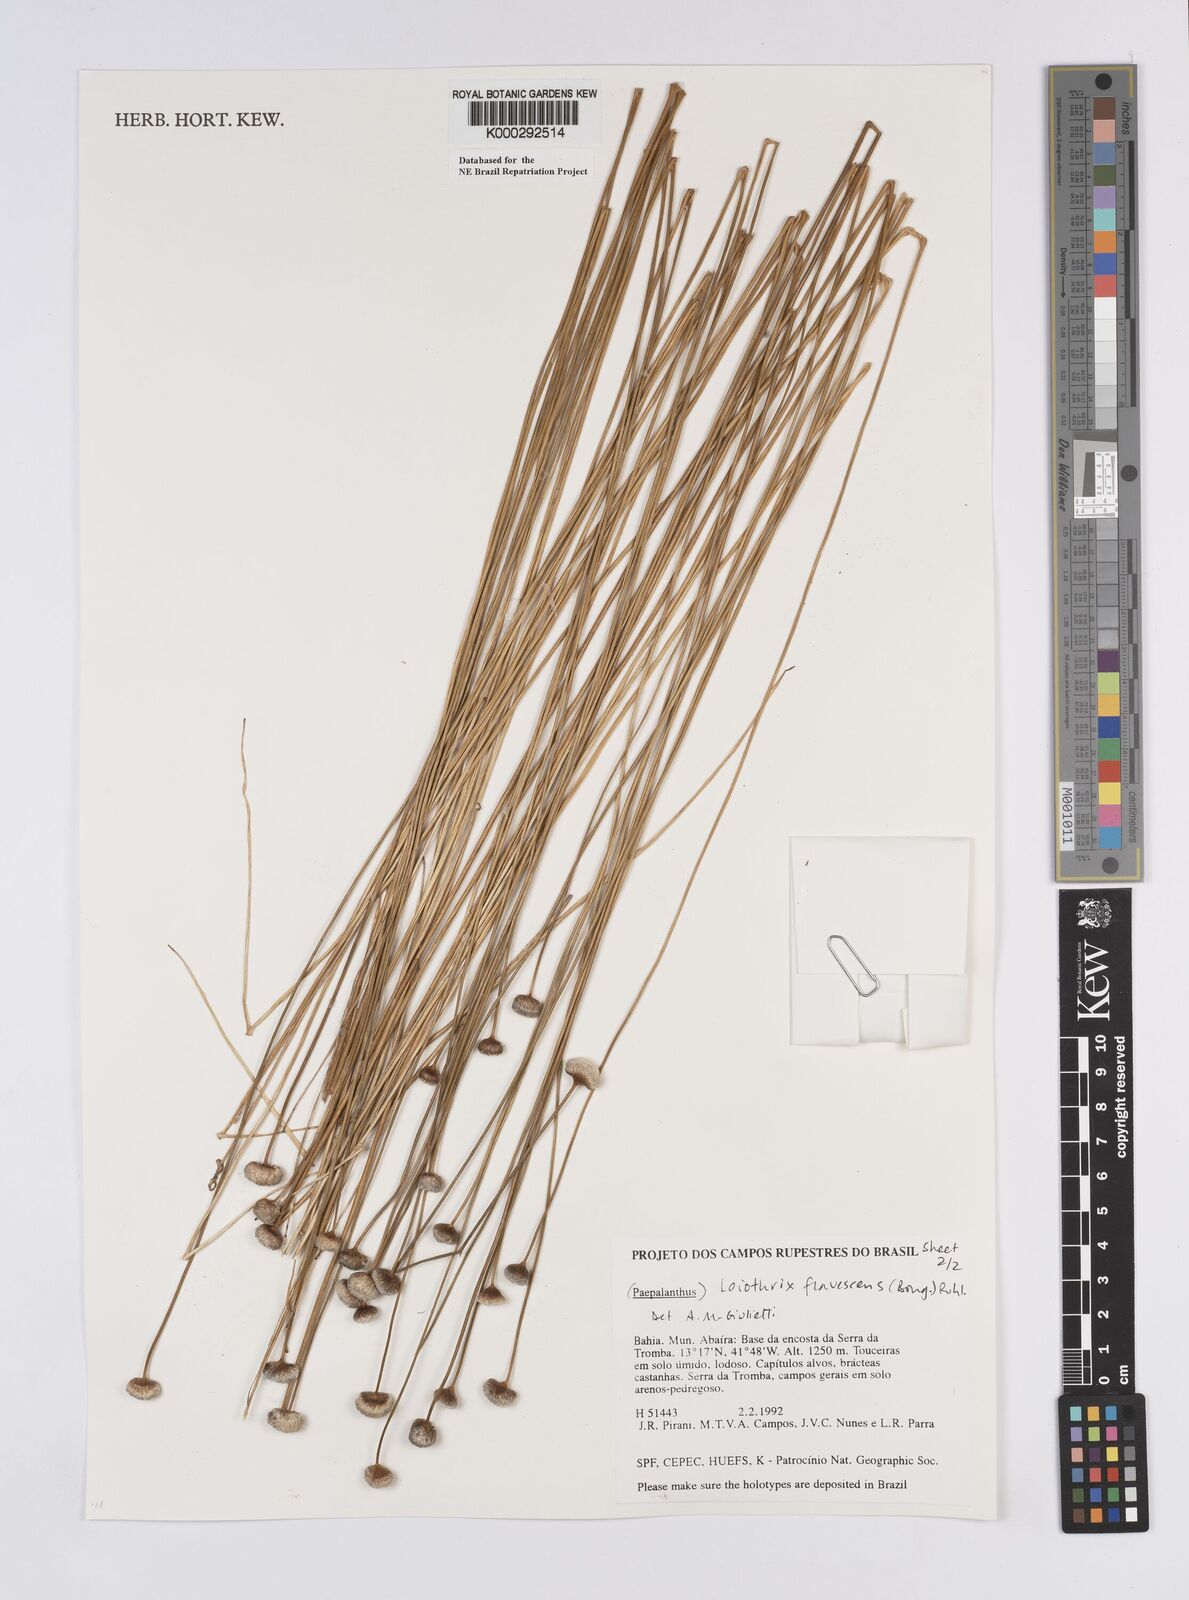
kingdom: Plantae
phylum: Tracheophyta
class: Liliopsida
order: Poales
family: Eriocaulaceae
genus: Leiothrix
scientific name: Leiothrix flavescens
